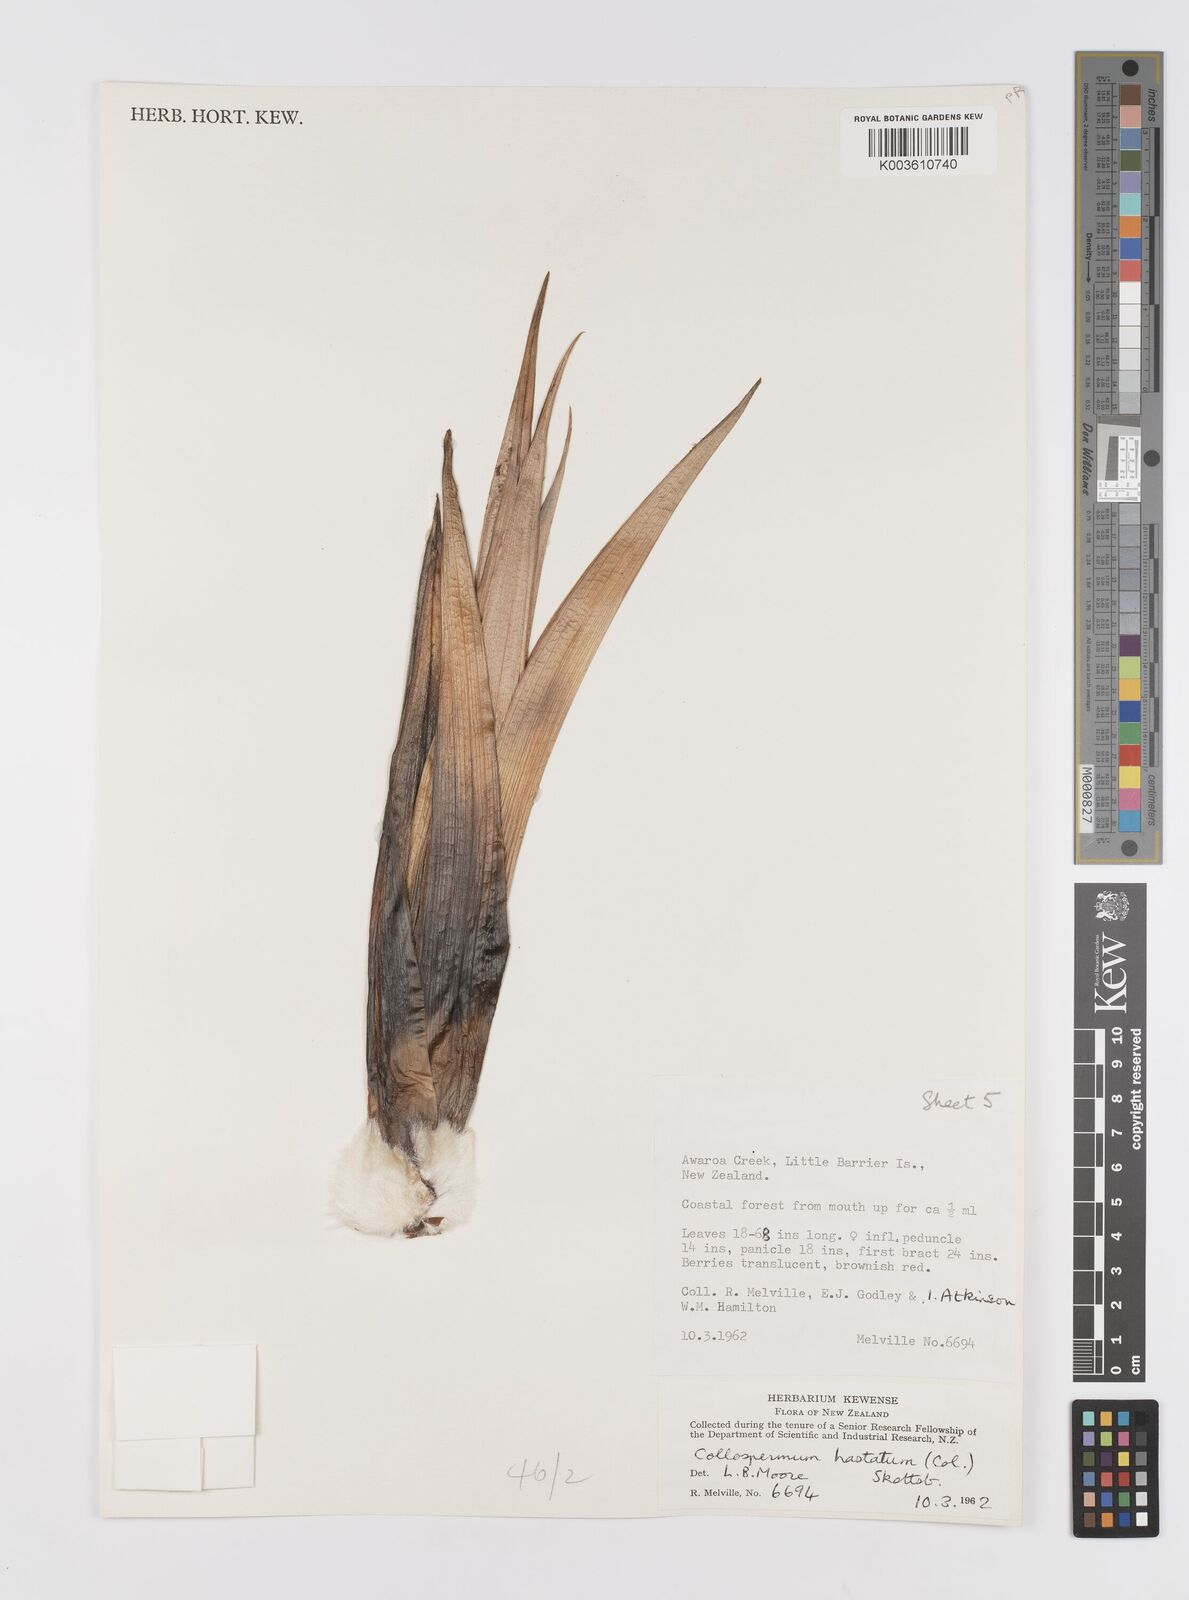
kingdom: Plantae
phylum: Tracheophyta
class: Liliopsida
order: Asparagales
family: Asteliaceae
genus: Astelia
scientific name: Astelia hastata
